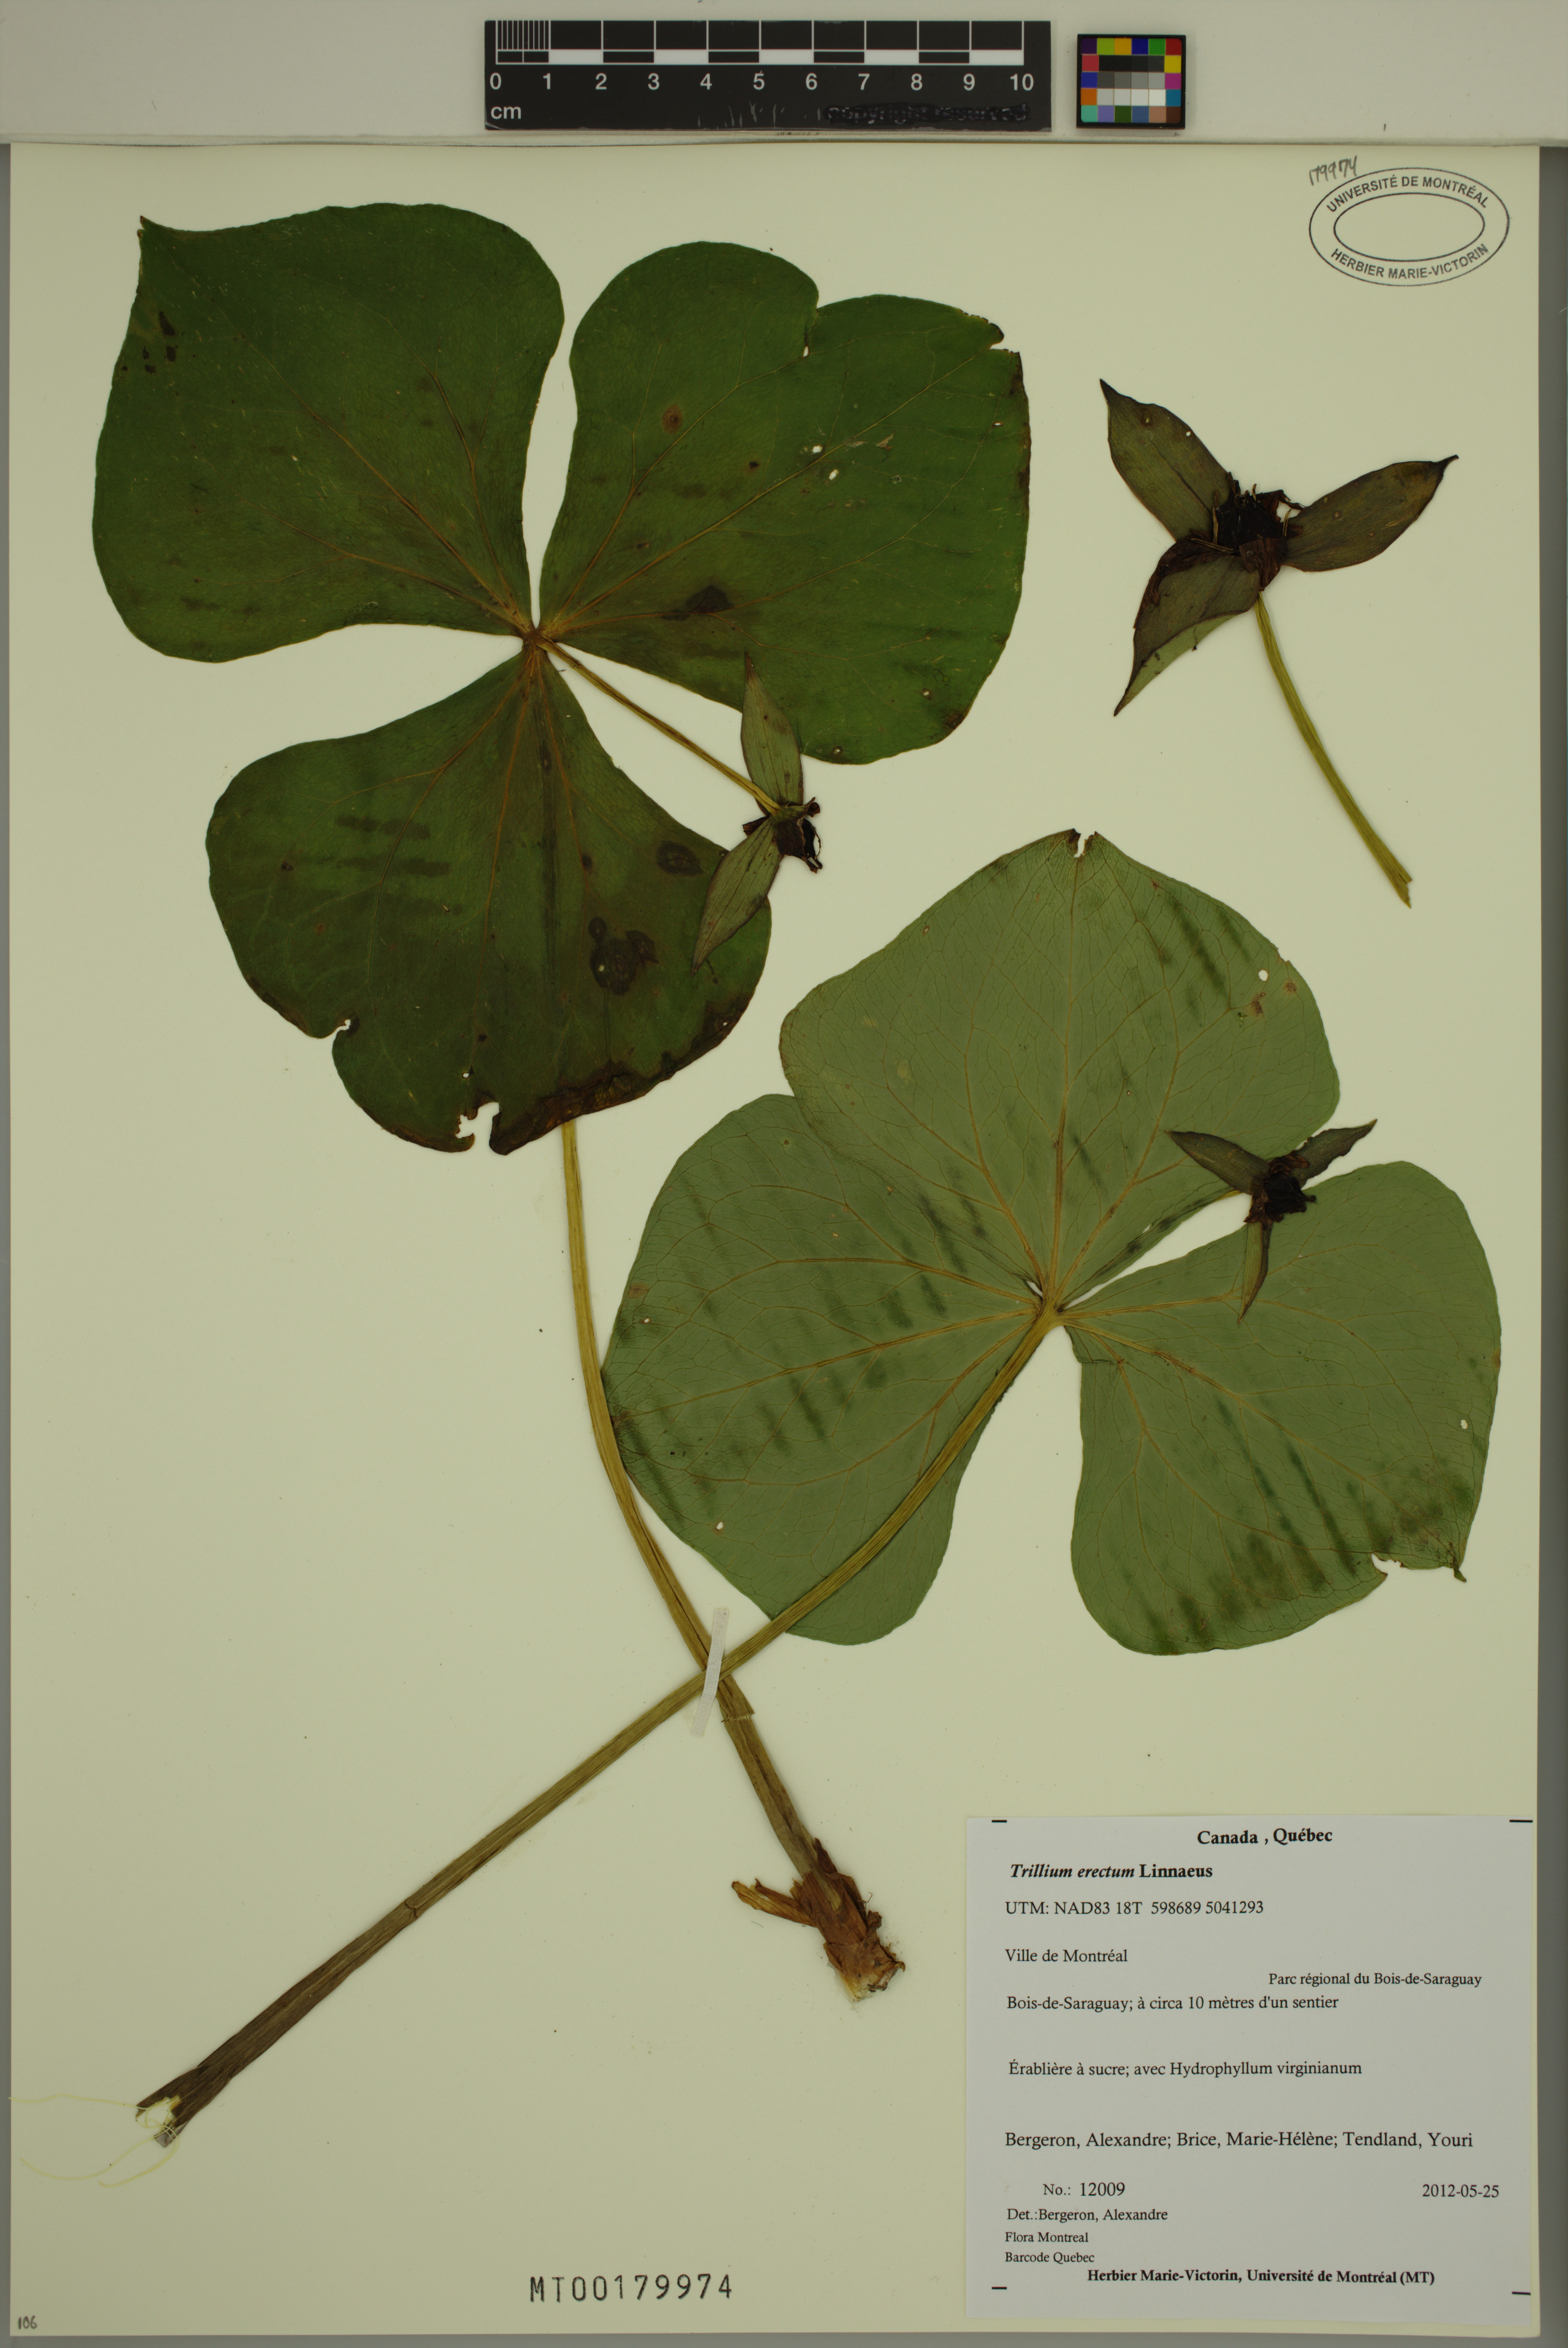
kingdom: Plantae
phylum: Tracheophyta
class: Liliopsida
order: Liliales
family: Melanthiaceae
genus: Trillium
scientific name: Trillium erectum
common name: Purple trillium
